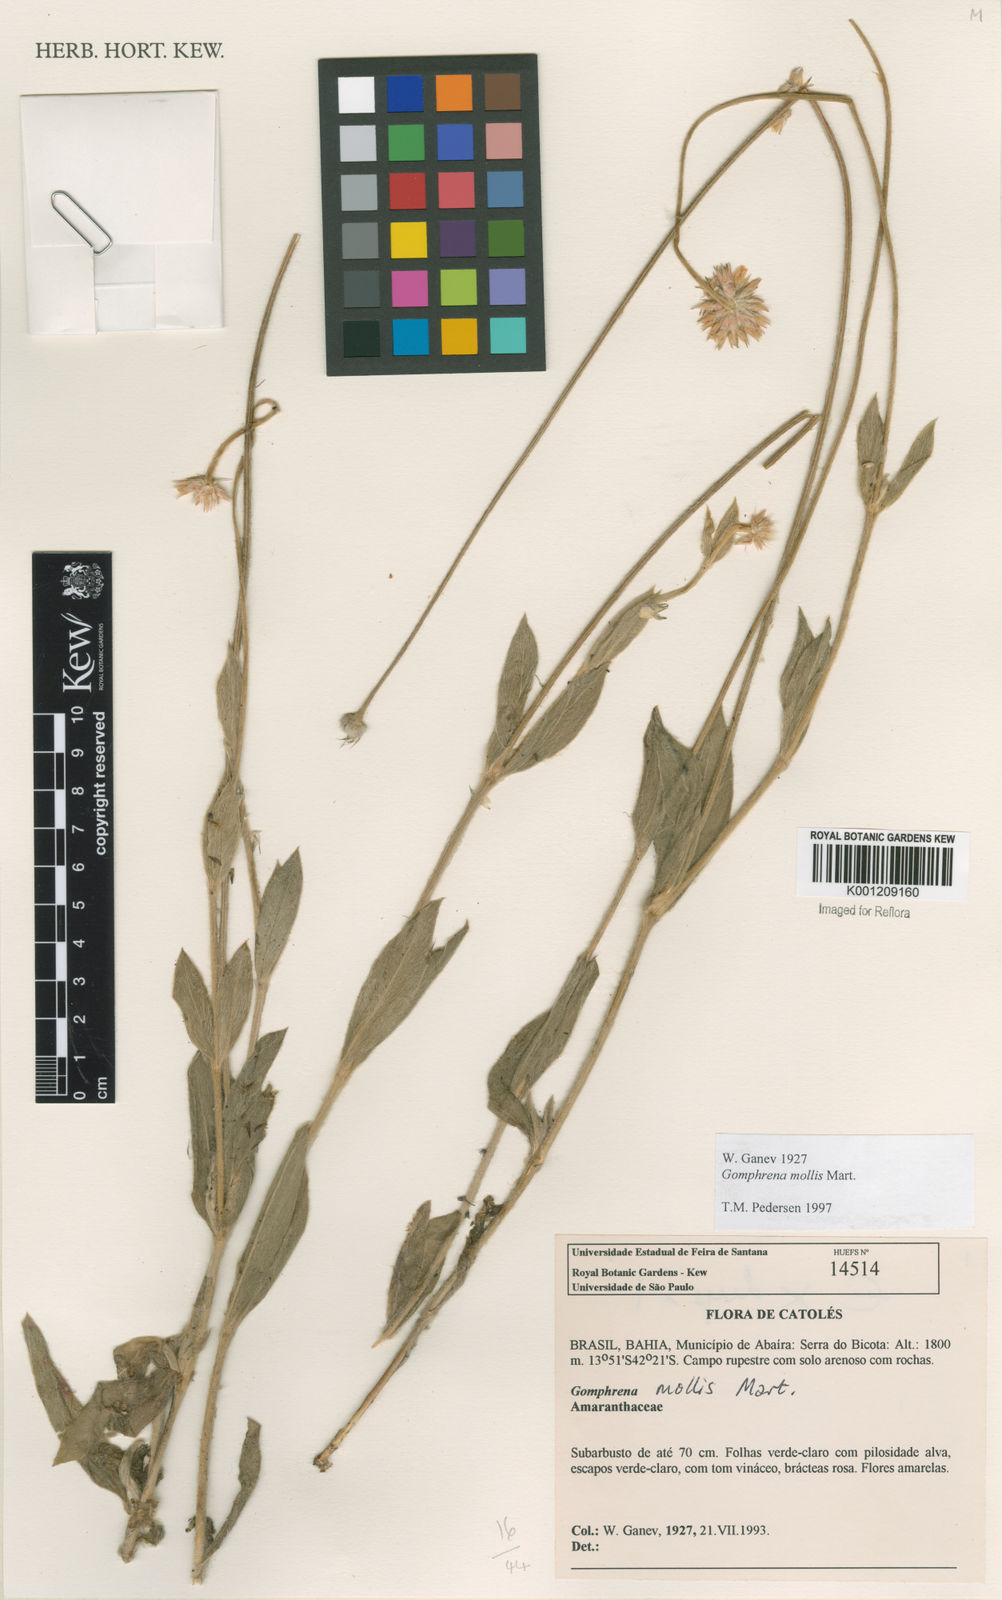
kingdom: Plantae
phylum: Tracheophyta
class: Magnoliopsida
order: Caryophyllales
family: Amaranthaceae
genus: Gomphrena
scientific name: Gomphrena mollis
